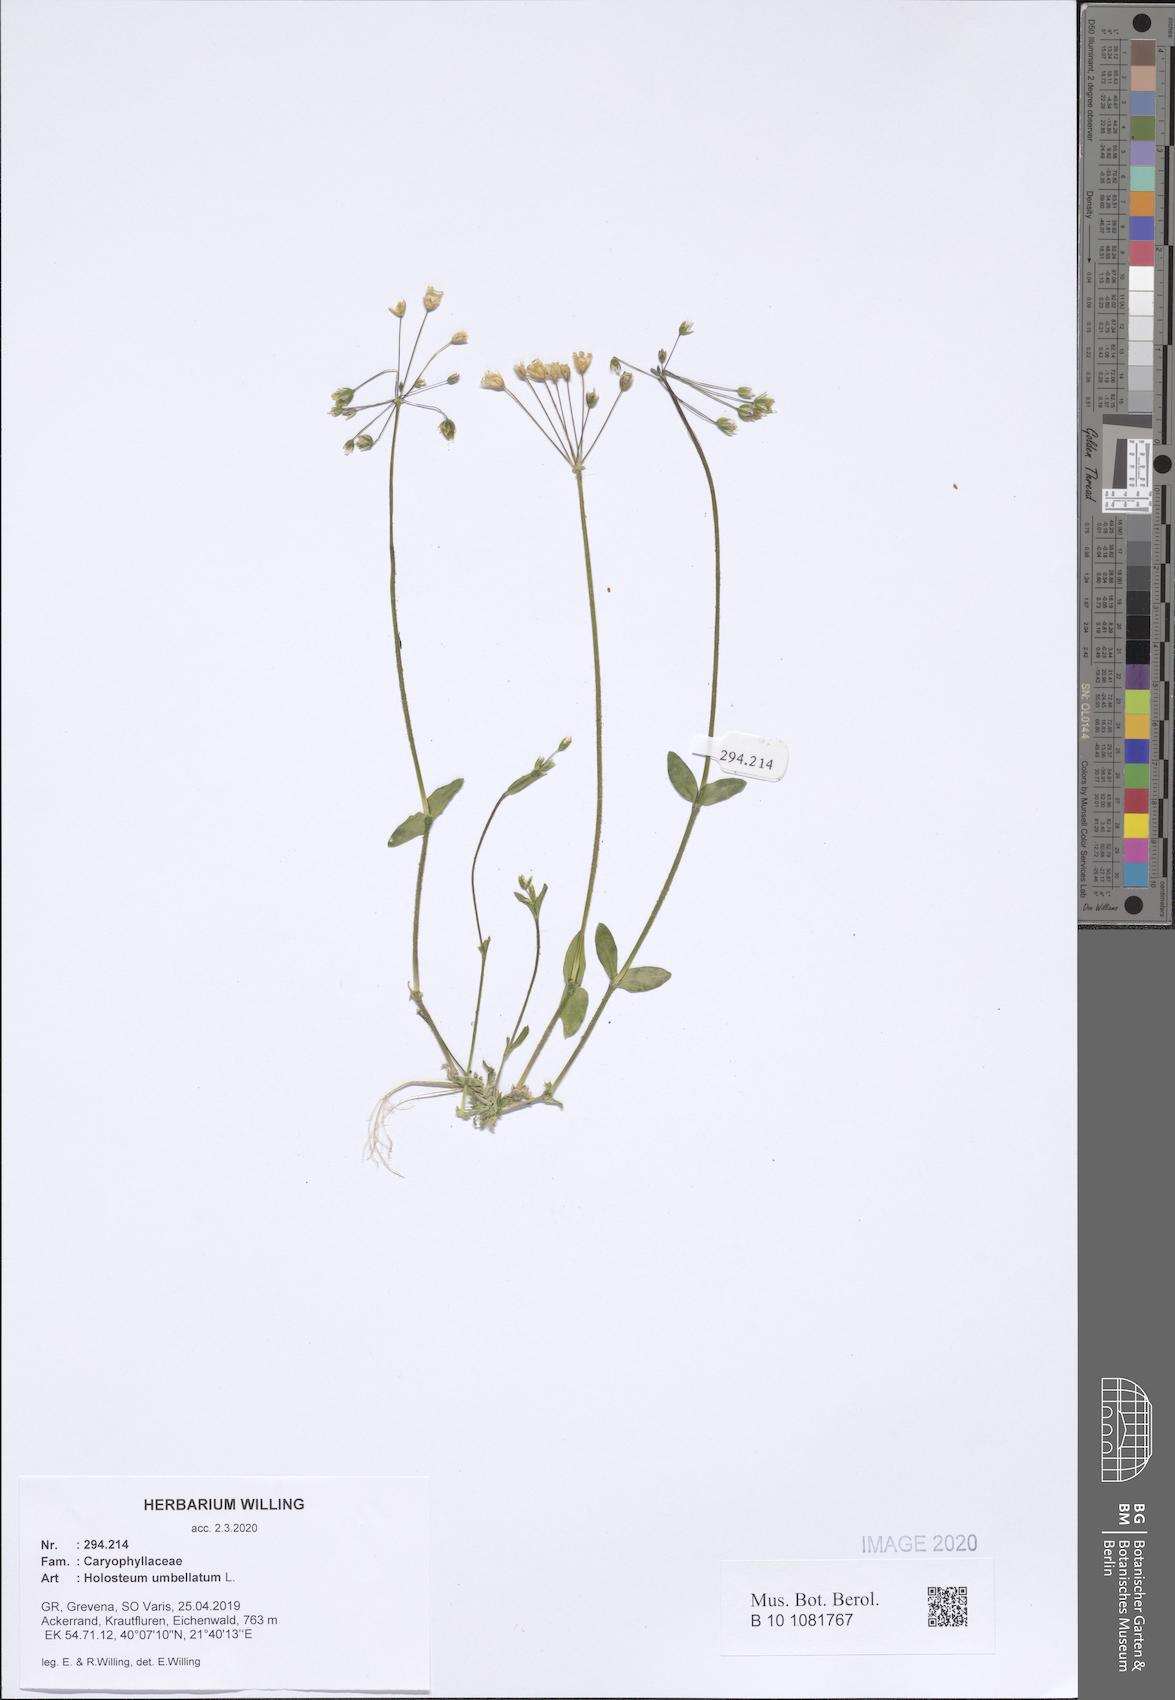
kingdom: Plantae
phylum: Tracheophyta
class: Magnoliopsida
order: Caryophyllales
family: Caryophyllaceae
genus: Holosteum
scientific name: Holosteum umbellatum
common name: Jagged chickweed
